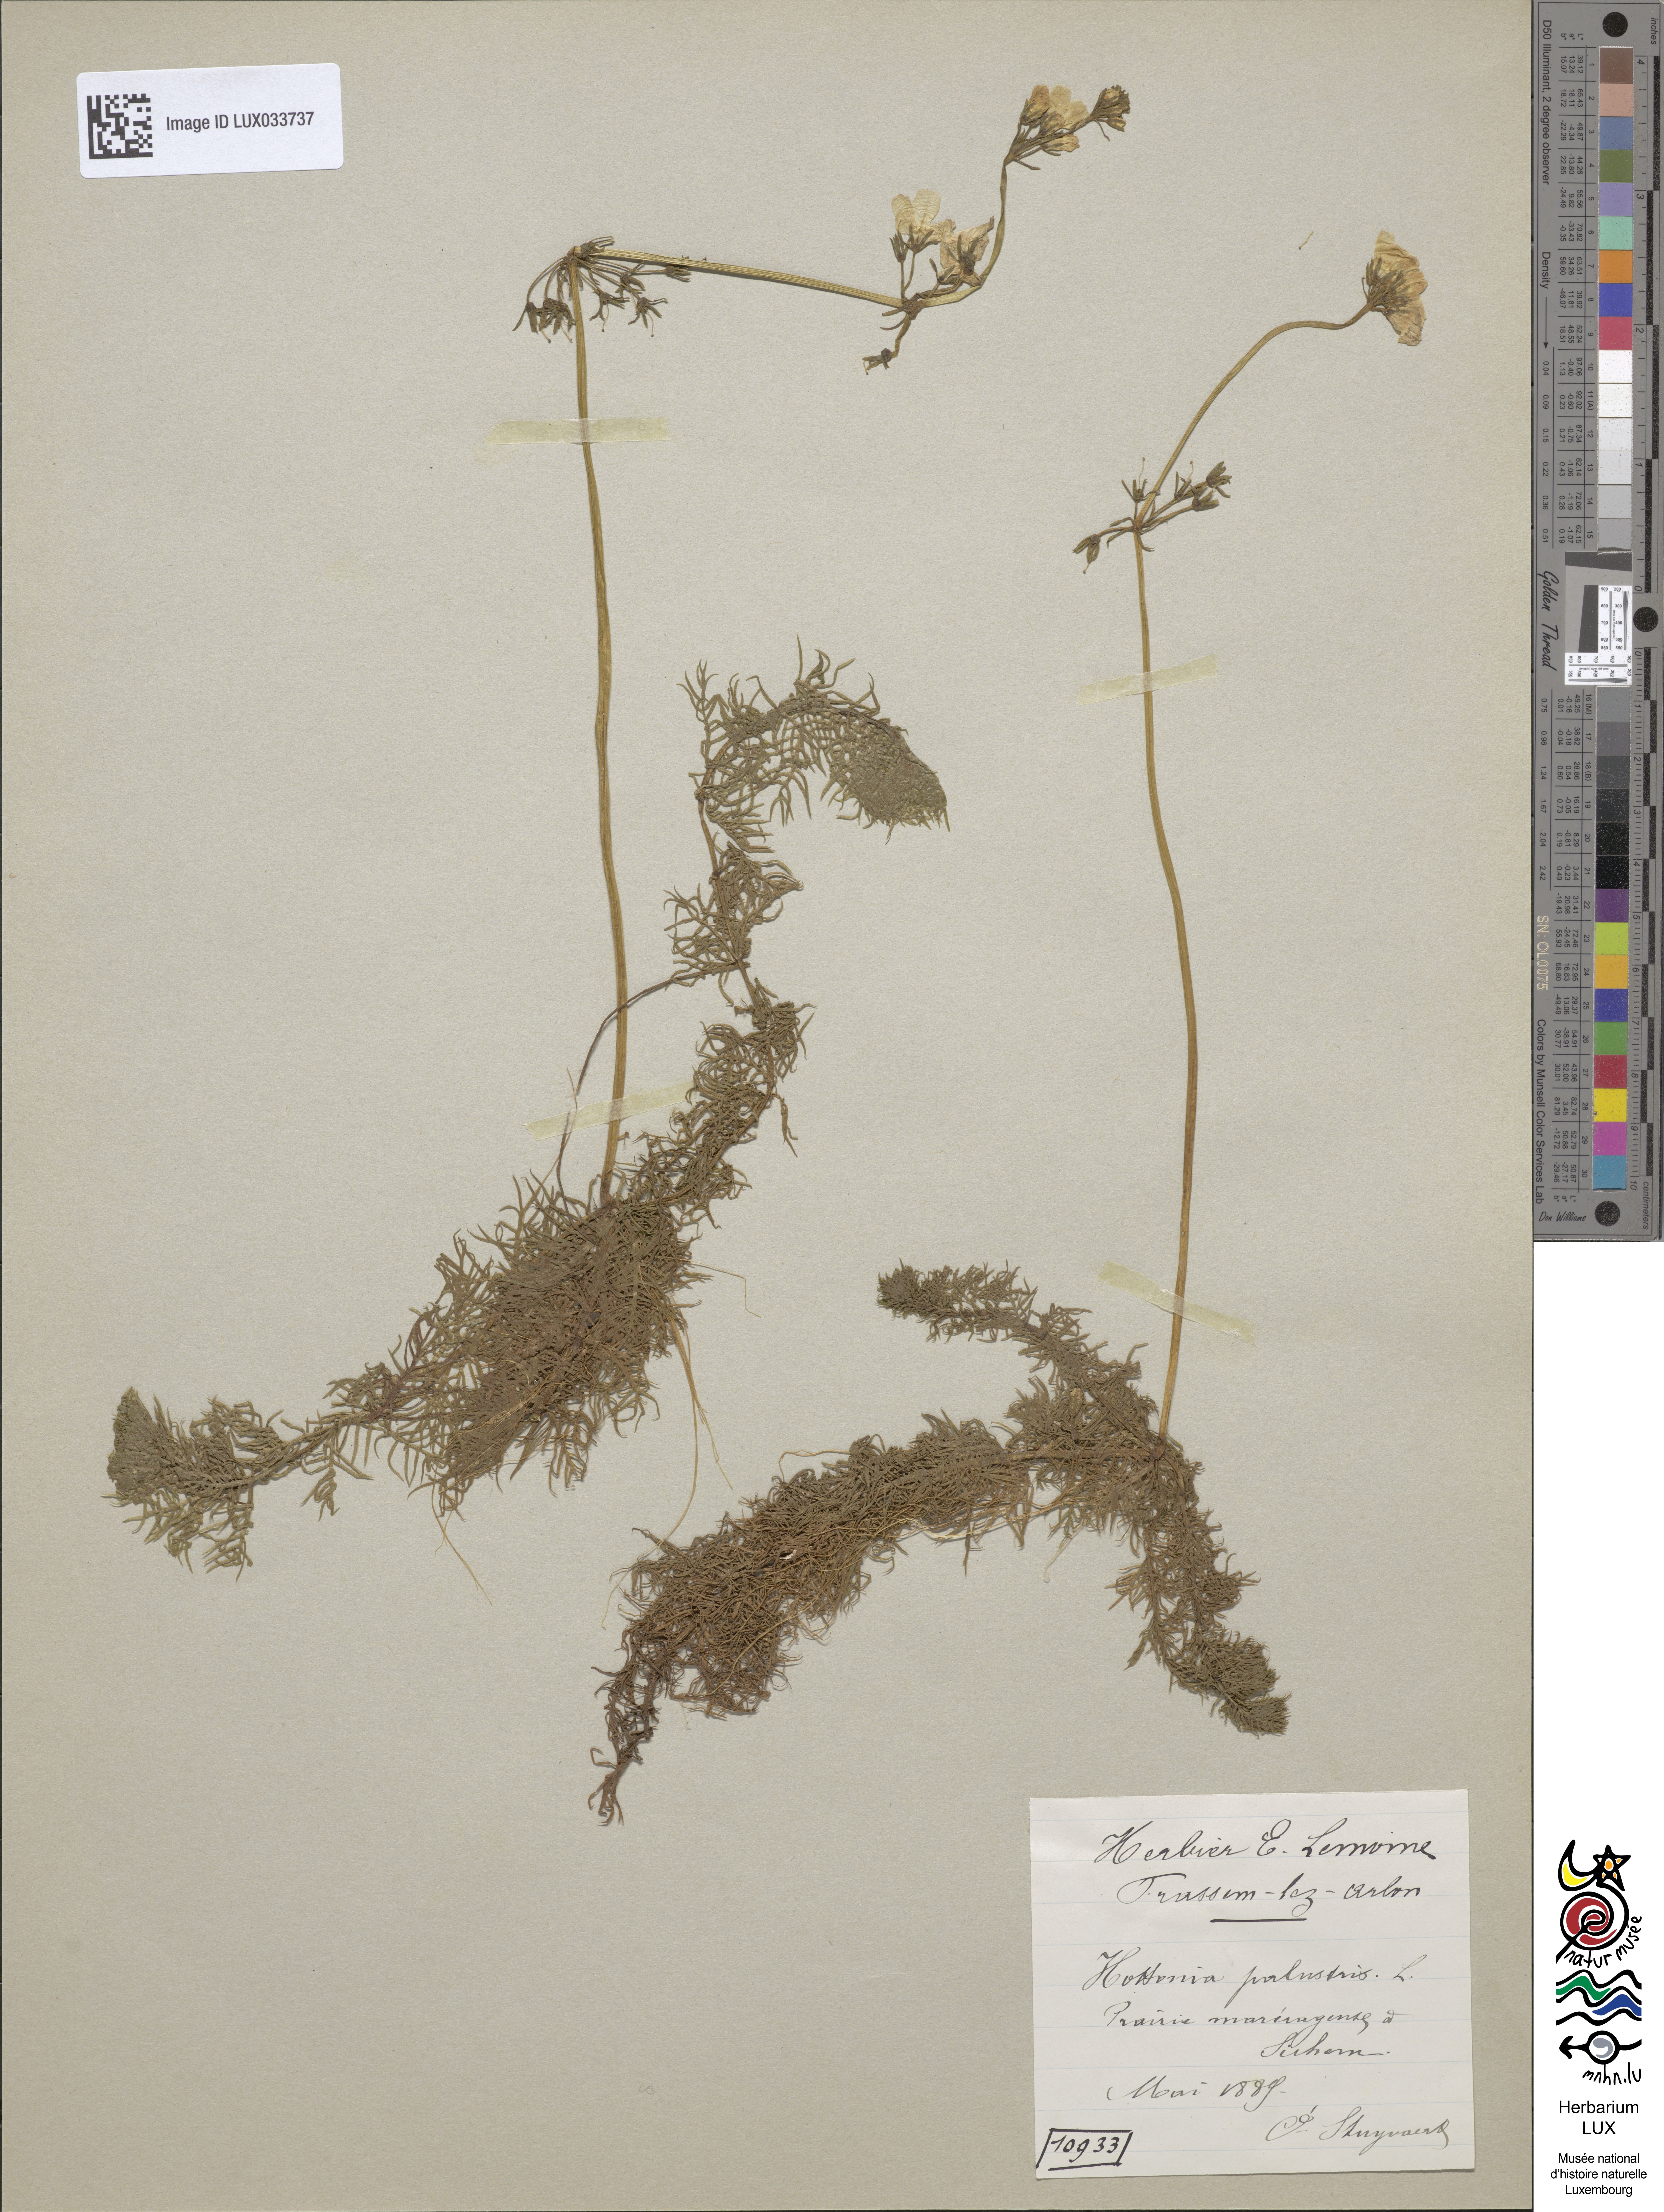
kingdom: Plantae
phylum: Tracheophyta
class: Magnoliopsida
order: Ericales
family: Primulaceae
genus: Hottonia
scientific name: Hottonia palustris
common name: Water-violet
